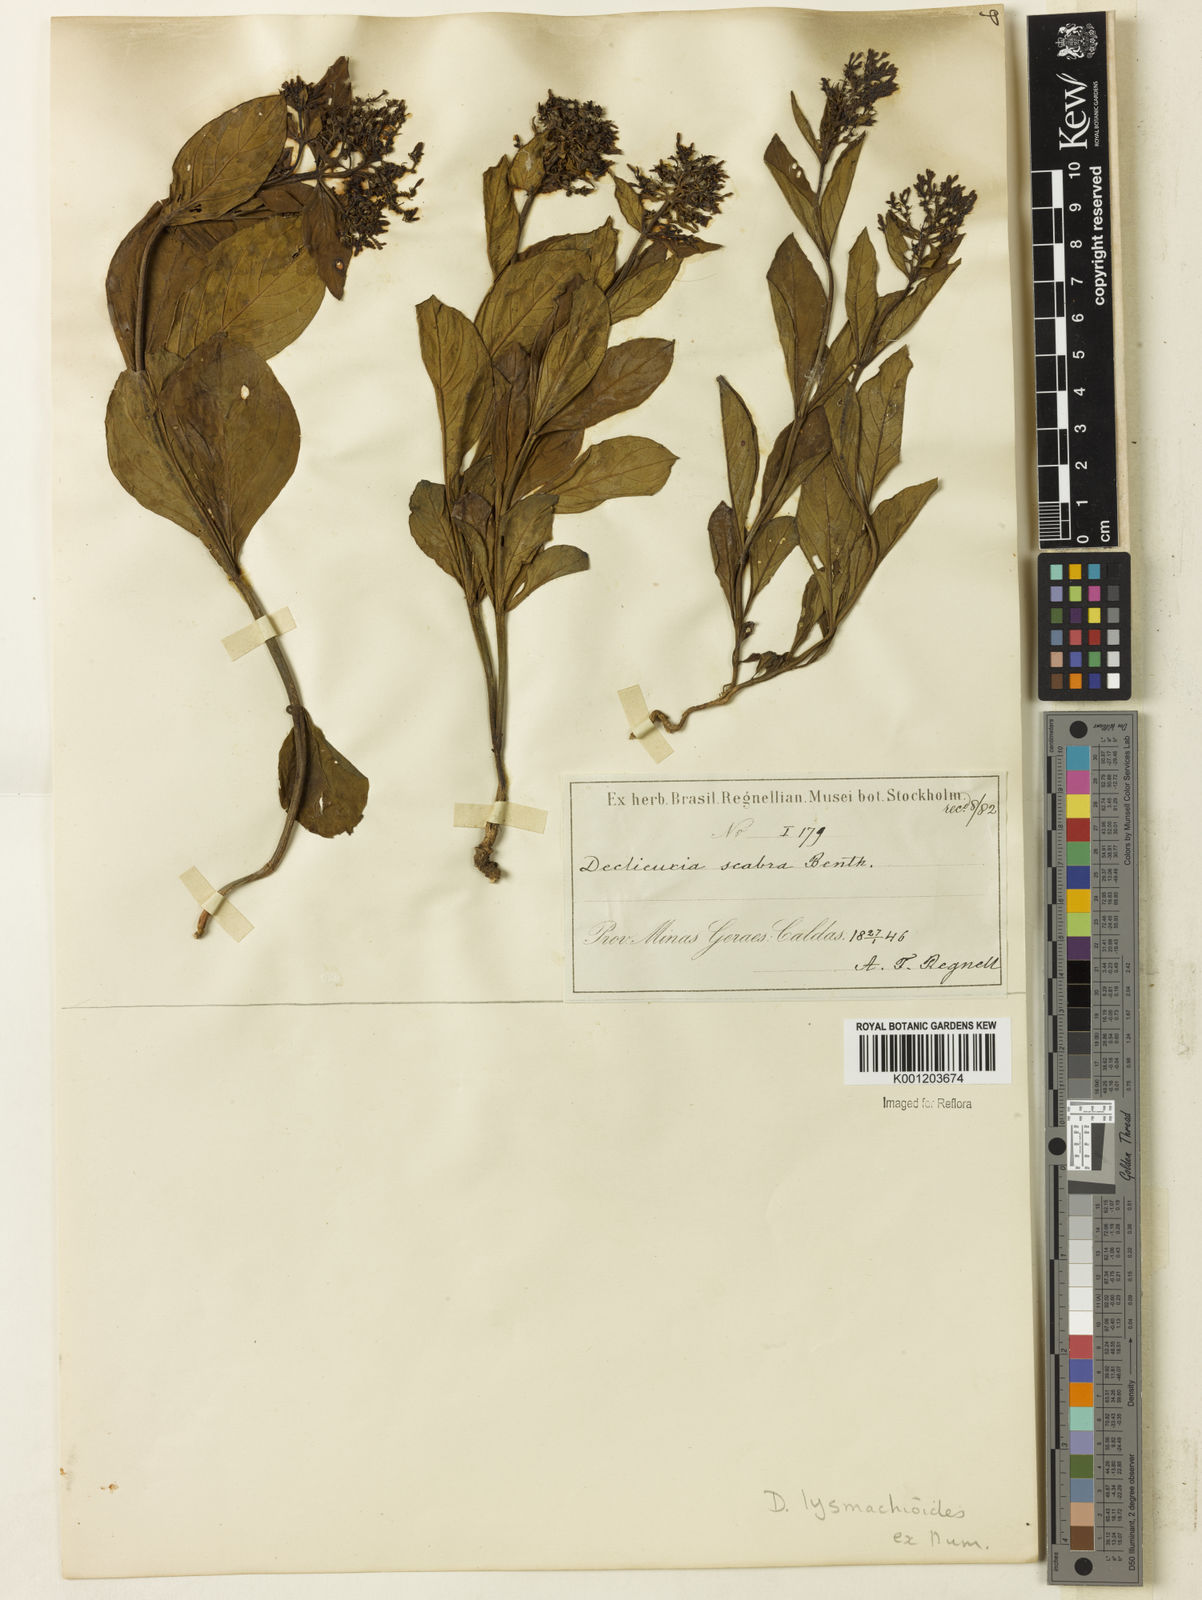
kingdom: Plantae
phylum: Tracheophyta
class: Magnoliopsida
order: Gentianales
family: Rubiaceae
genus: Declieuxia
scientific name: Declieuxia
